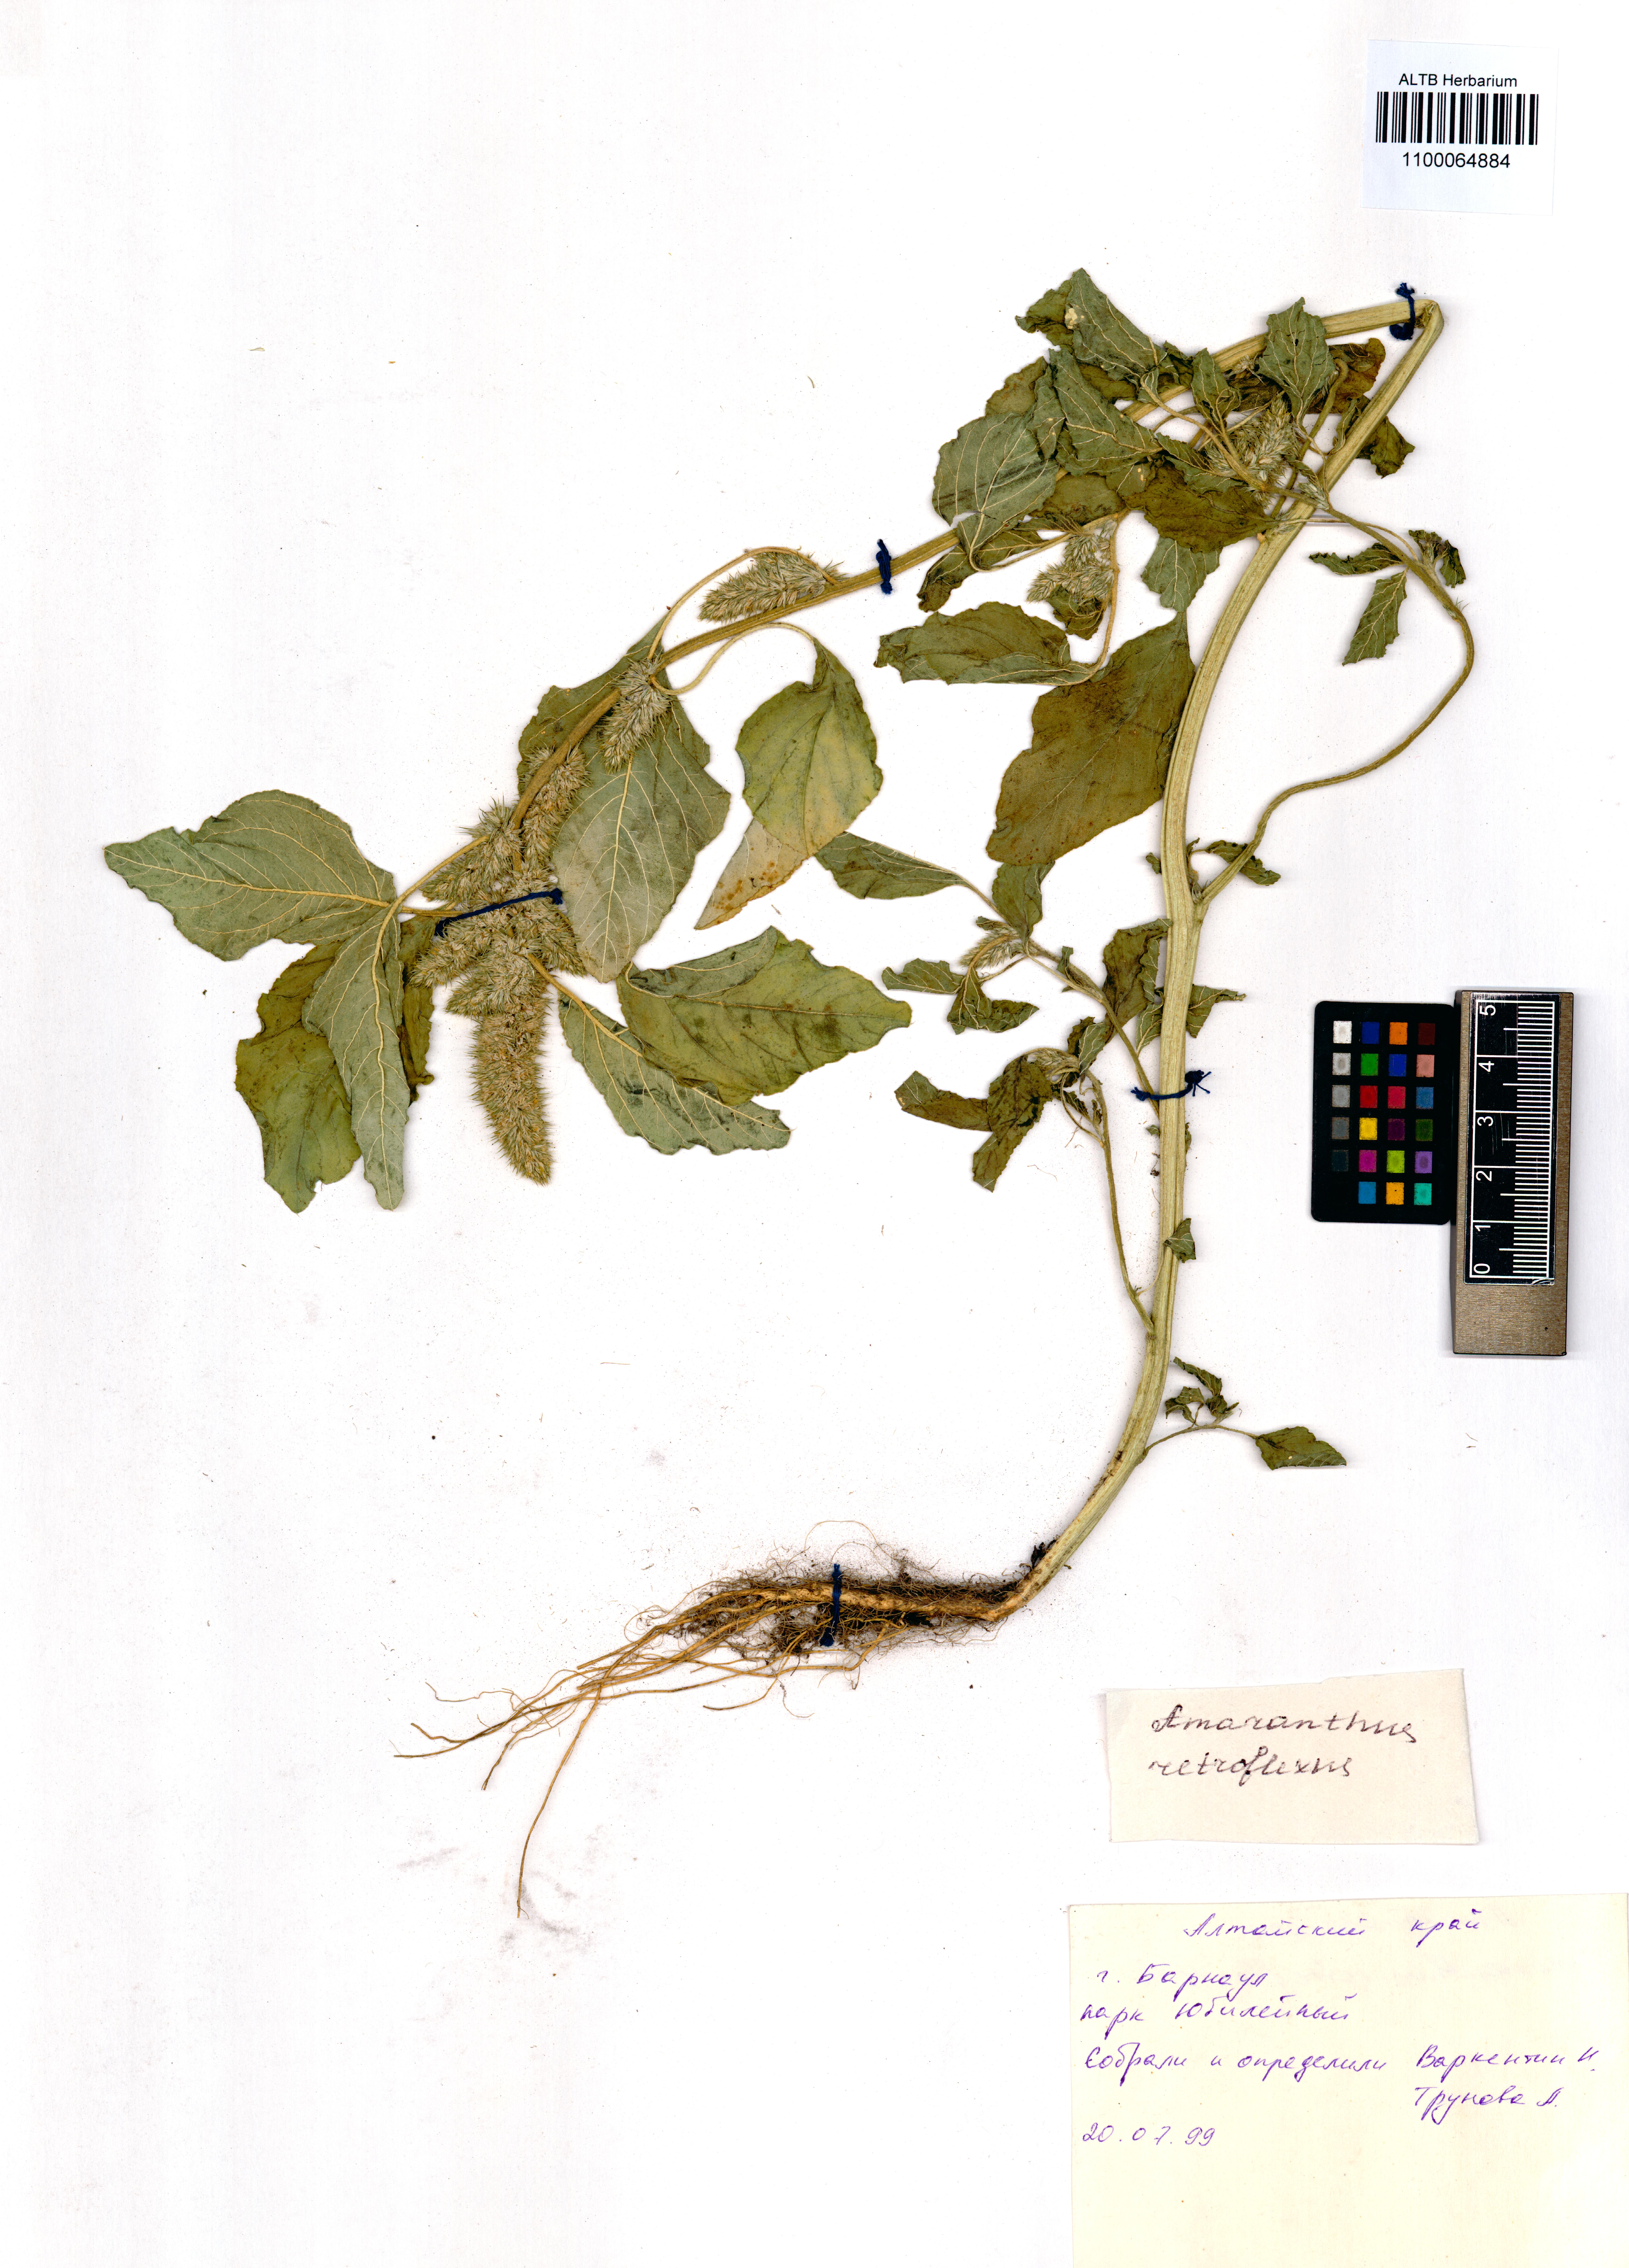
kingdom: Plantae
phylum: Tracheophyta
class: Magnoliopsida
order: Caryophyllales
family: Amaranthaceae
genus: Amaranthus
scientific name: Amaranthus retroflexus
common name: Redroot amaranth
